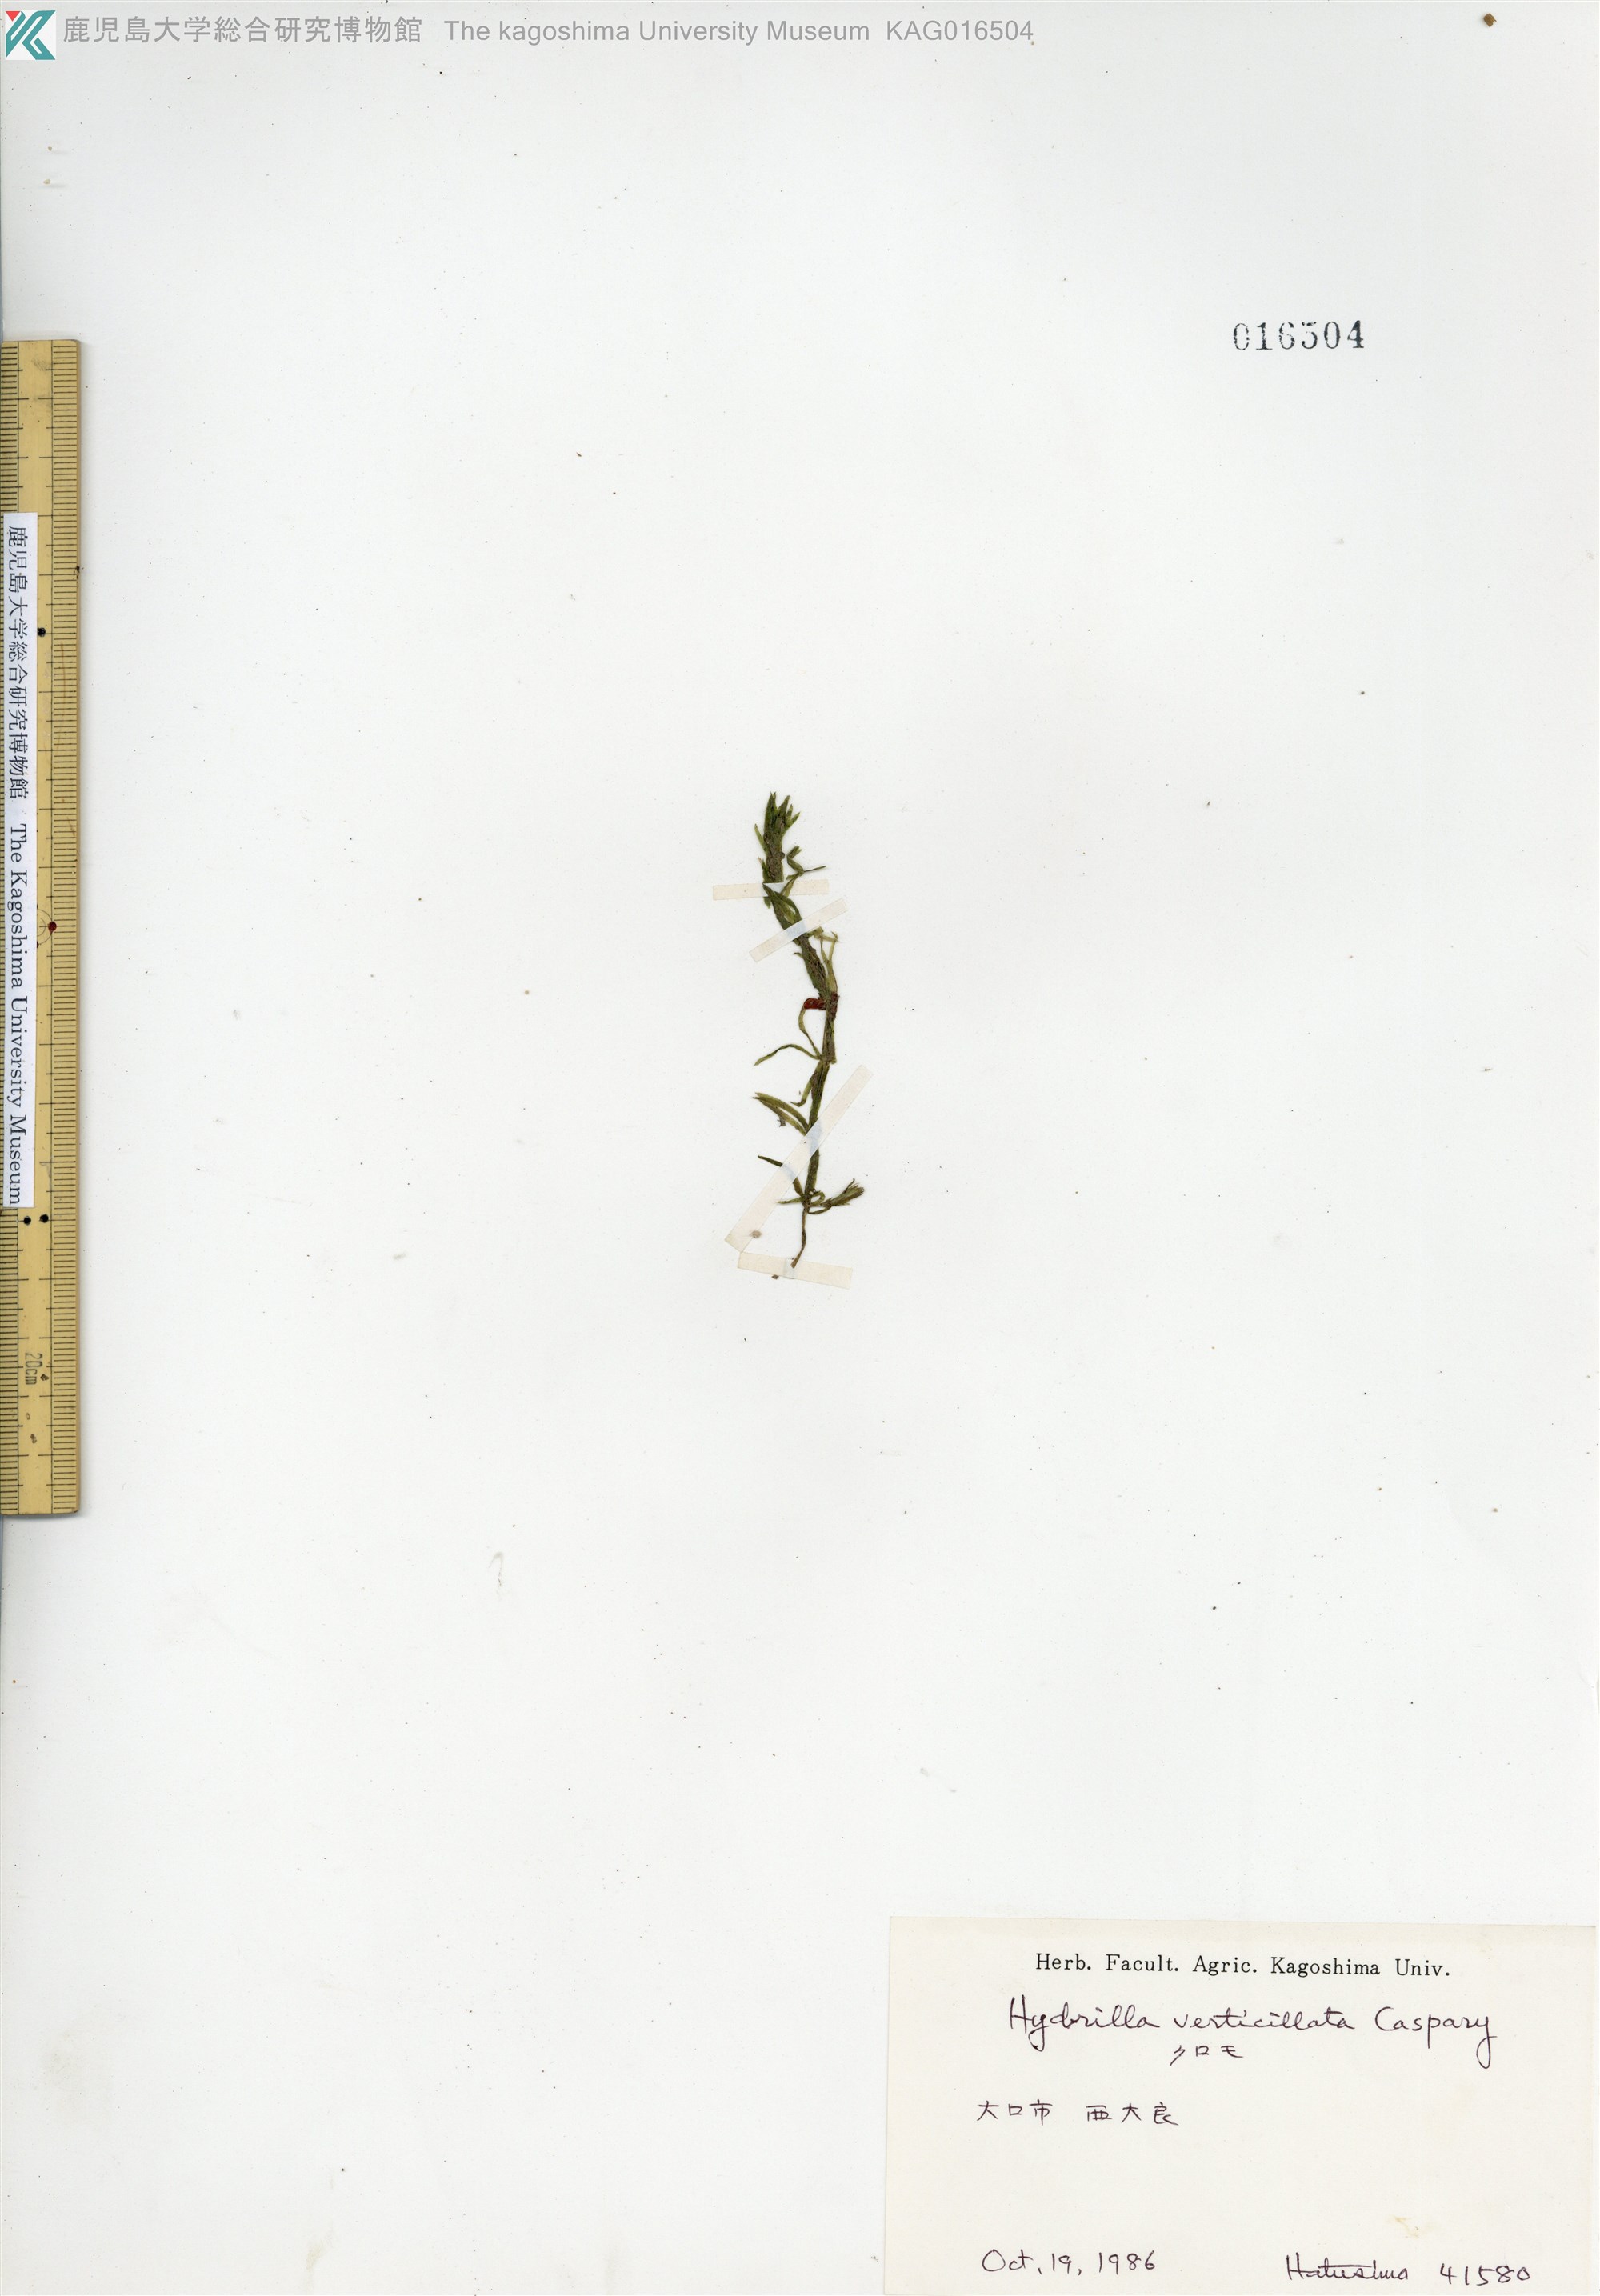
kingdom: Plantae
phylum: Tracheophyta
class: Liliopsida
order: Alismatales
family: Hydrocharitaceae
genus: Hydrilla
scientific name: Hydrilla verticillata
